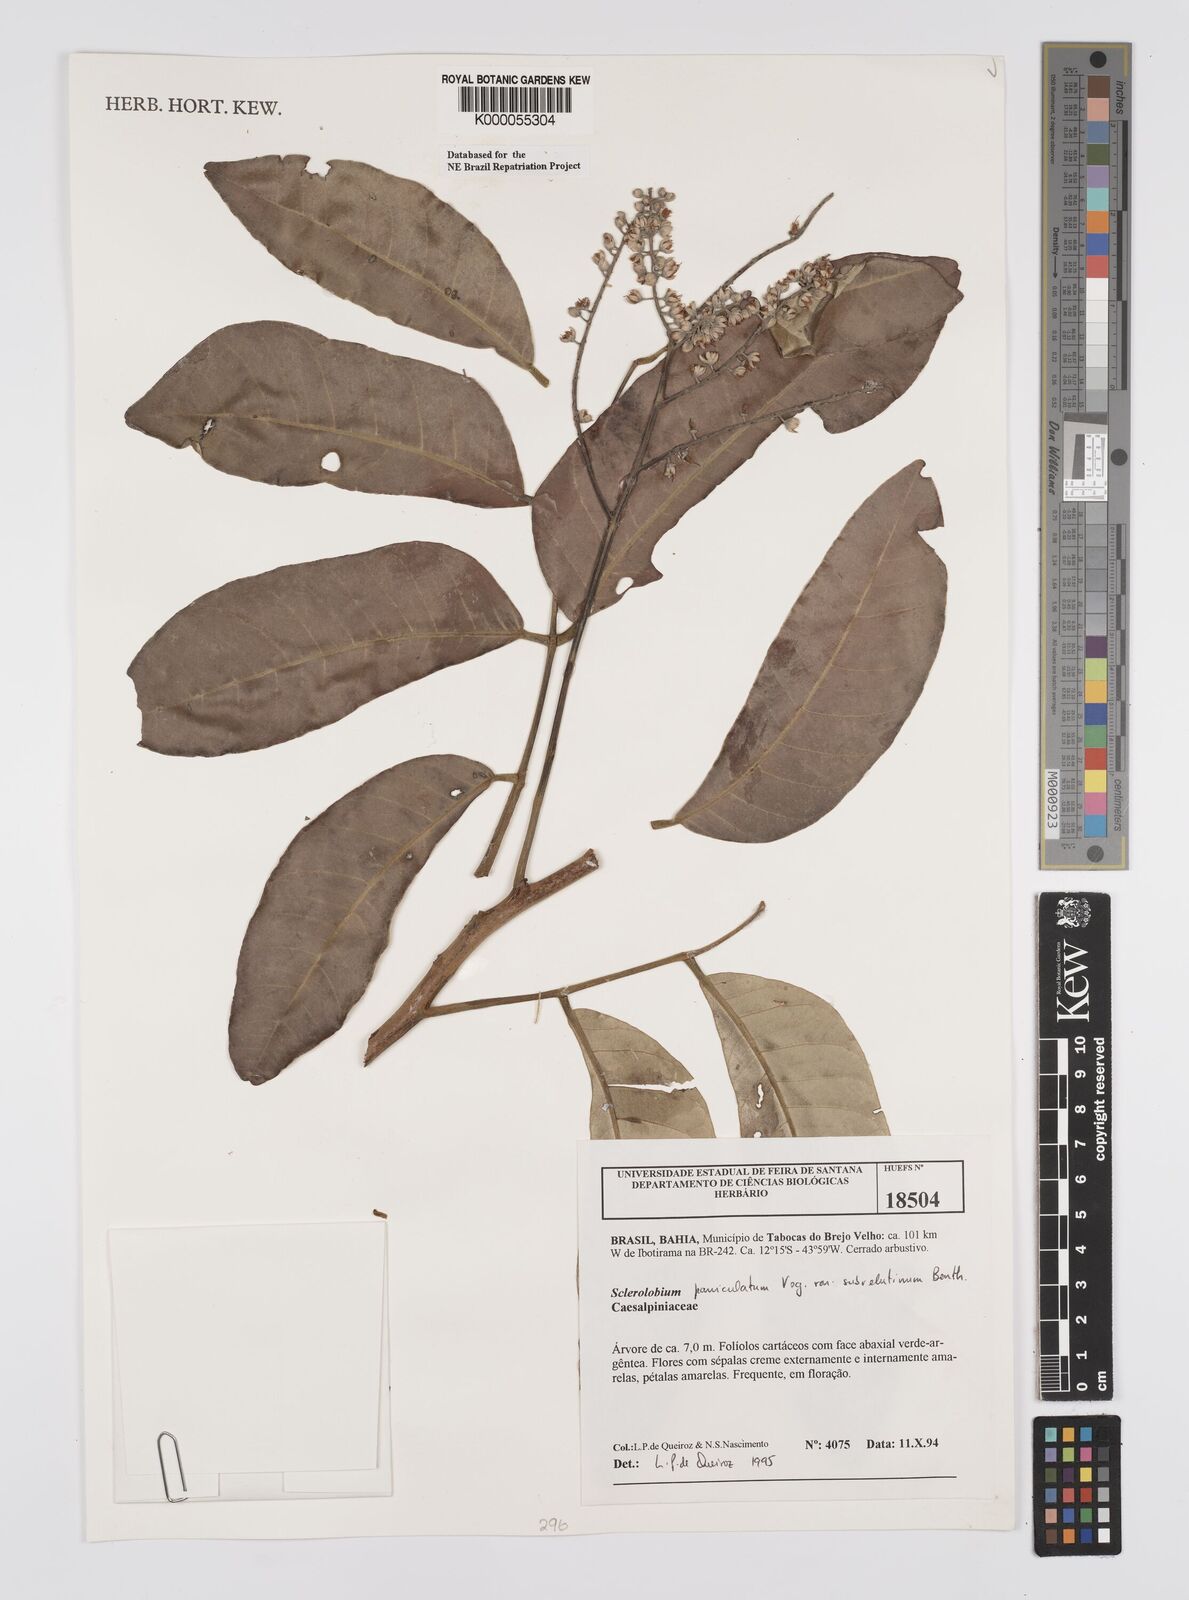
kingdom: Plantae
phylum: Tracheophyta
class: Magnoliopsida
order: Fabales
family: Fabaceae
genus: Tachigali
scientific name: Tachigali subvelutina
